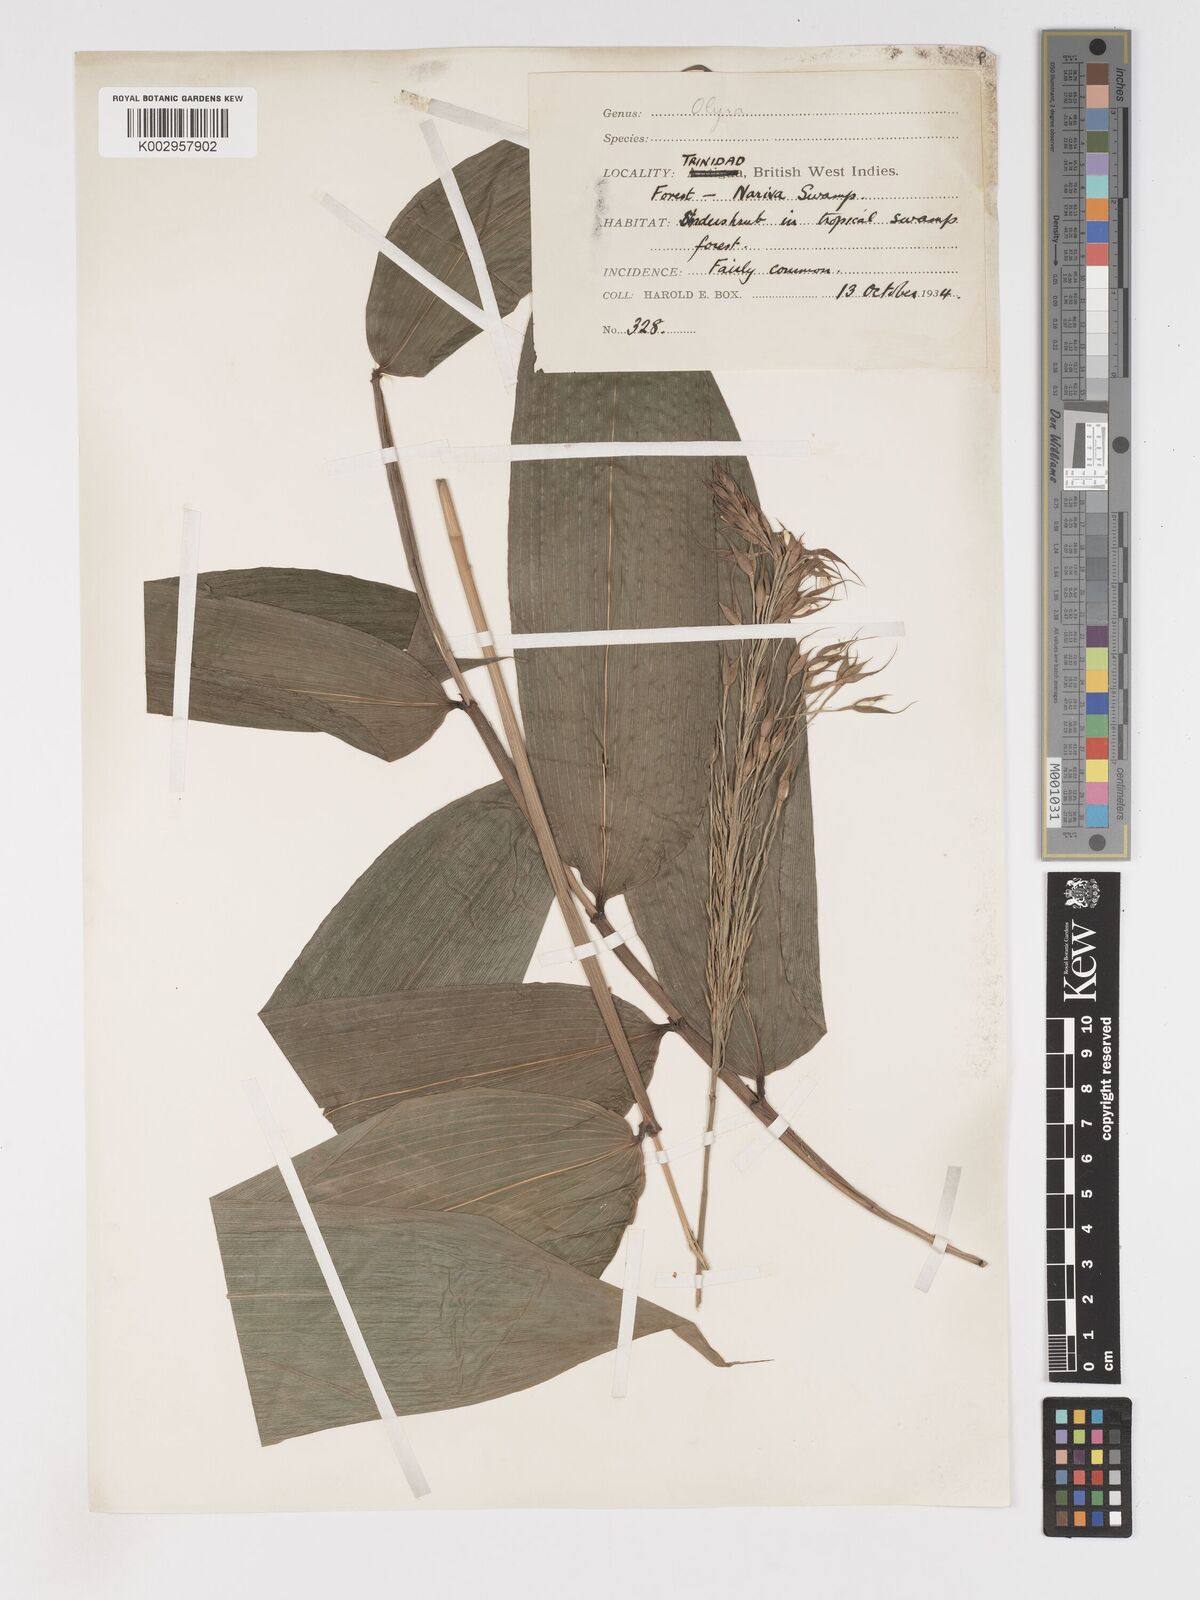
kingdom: Plantae
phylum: Tracheophyta
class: Liliopsida
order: Poales
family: Poaceae
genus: Olyra
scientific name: Olyra latifolia
